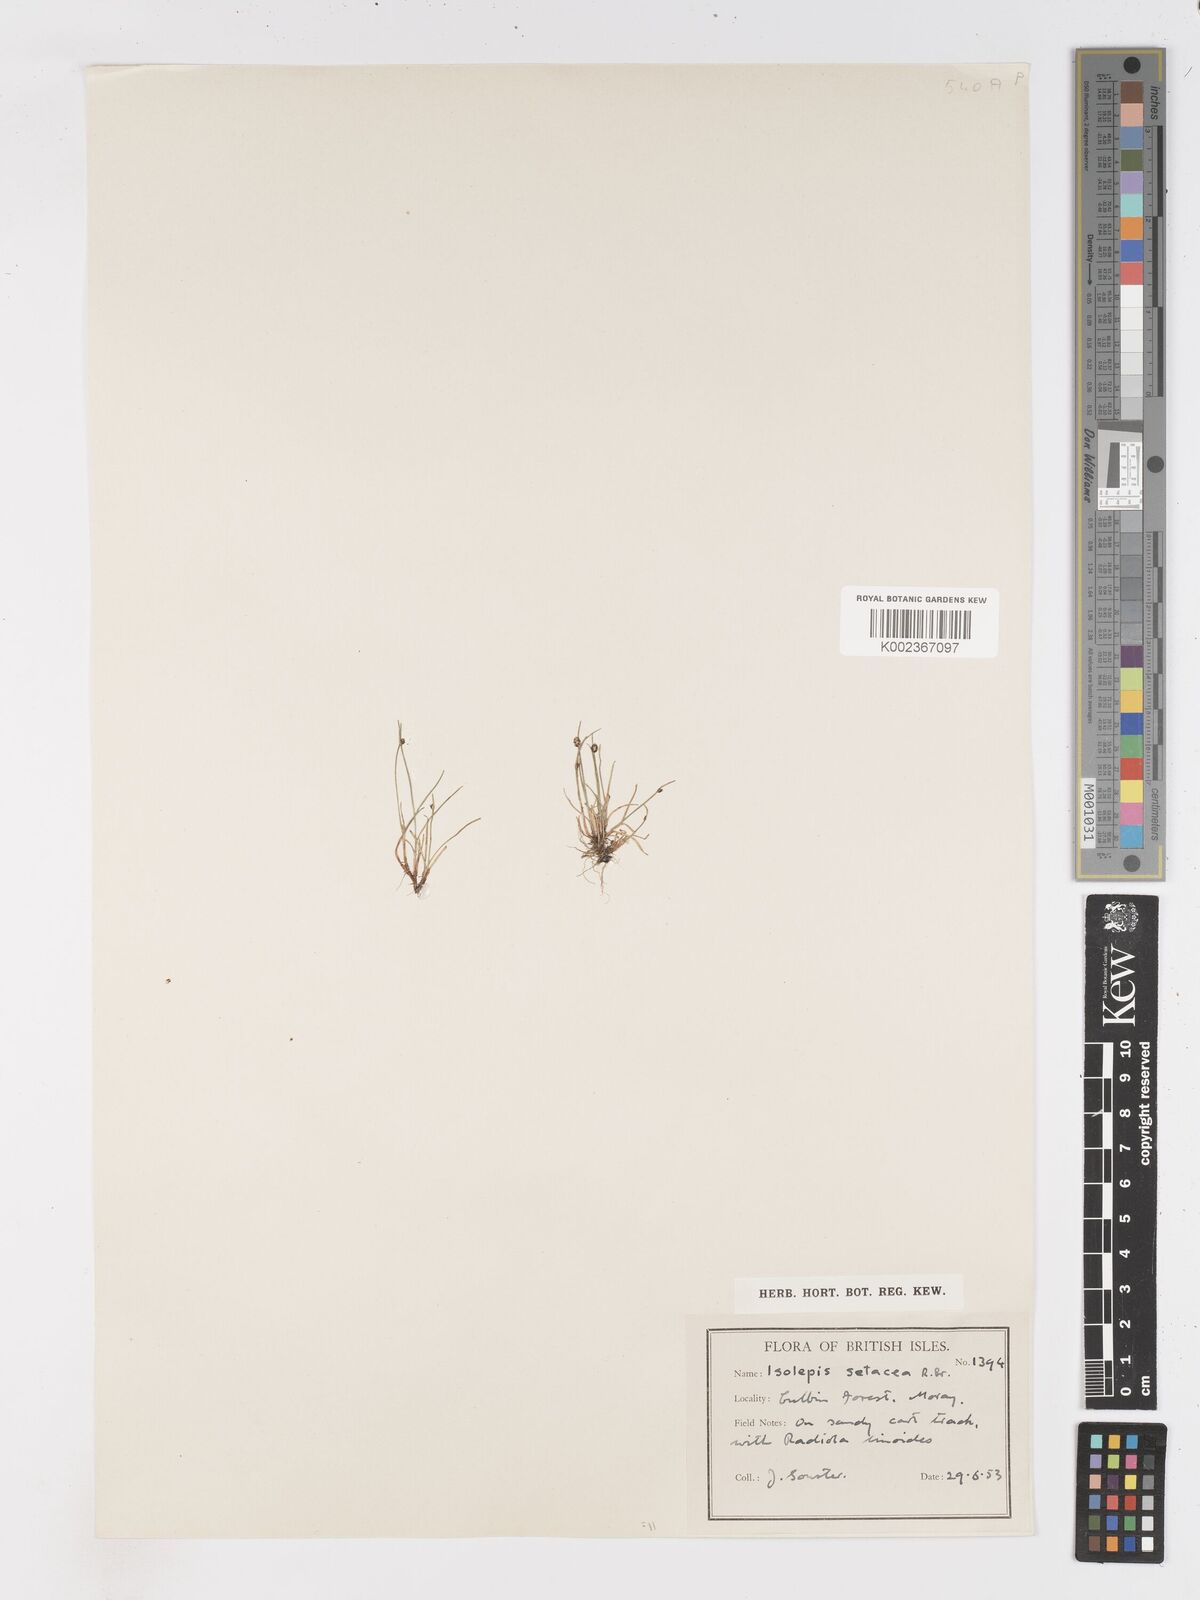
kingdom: Plantae
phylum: Tracheophyta
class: Liliopsida
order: Poales
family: Cyperaceae
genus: Isolepis
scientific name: Isolepis setacea
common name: Bristle club-rush
